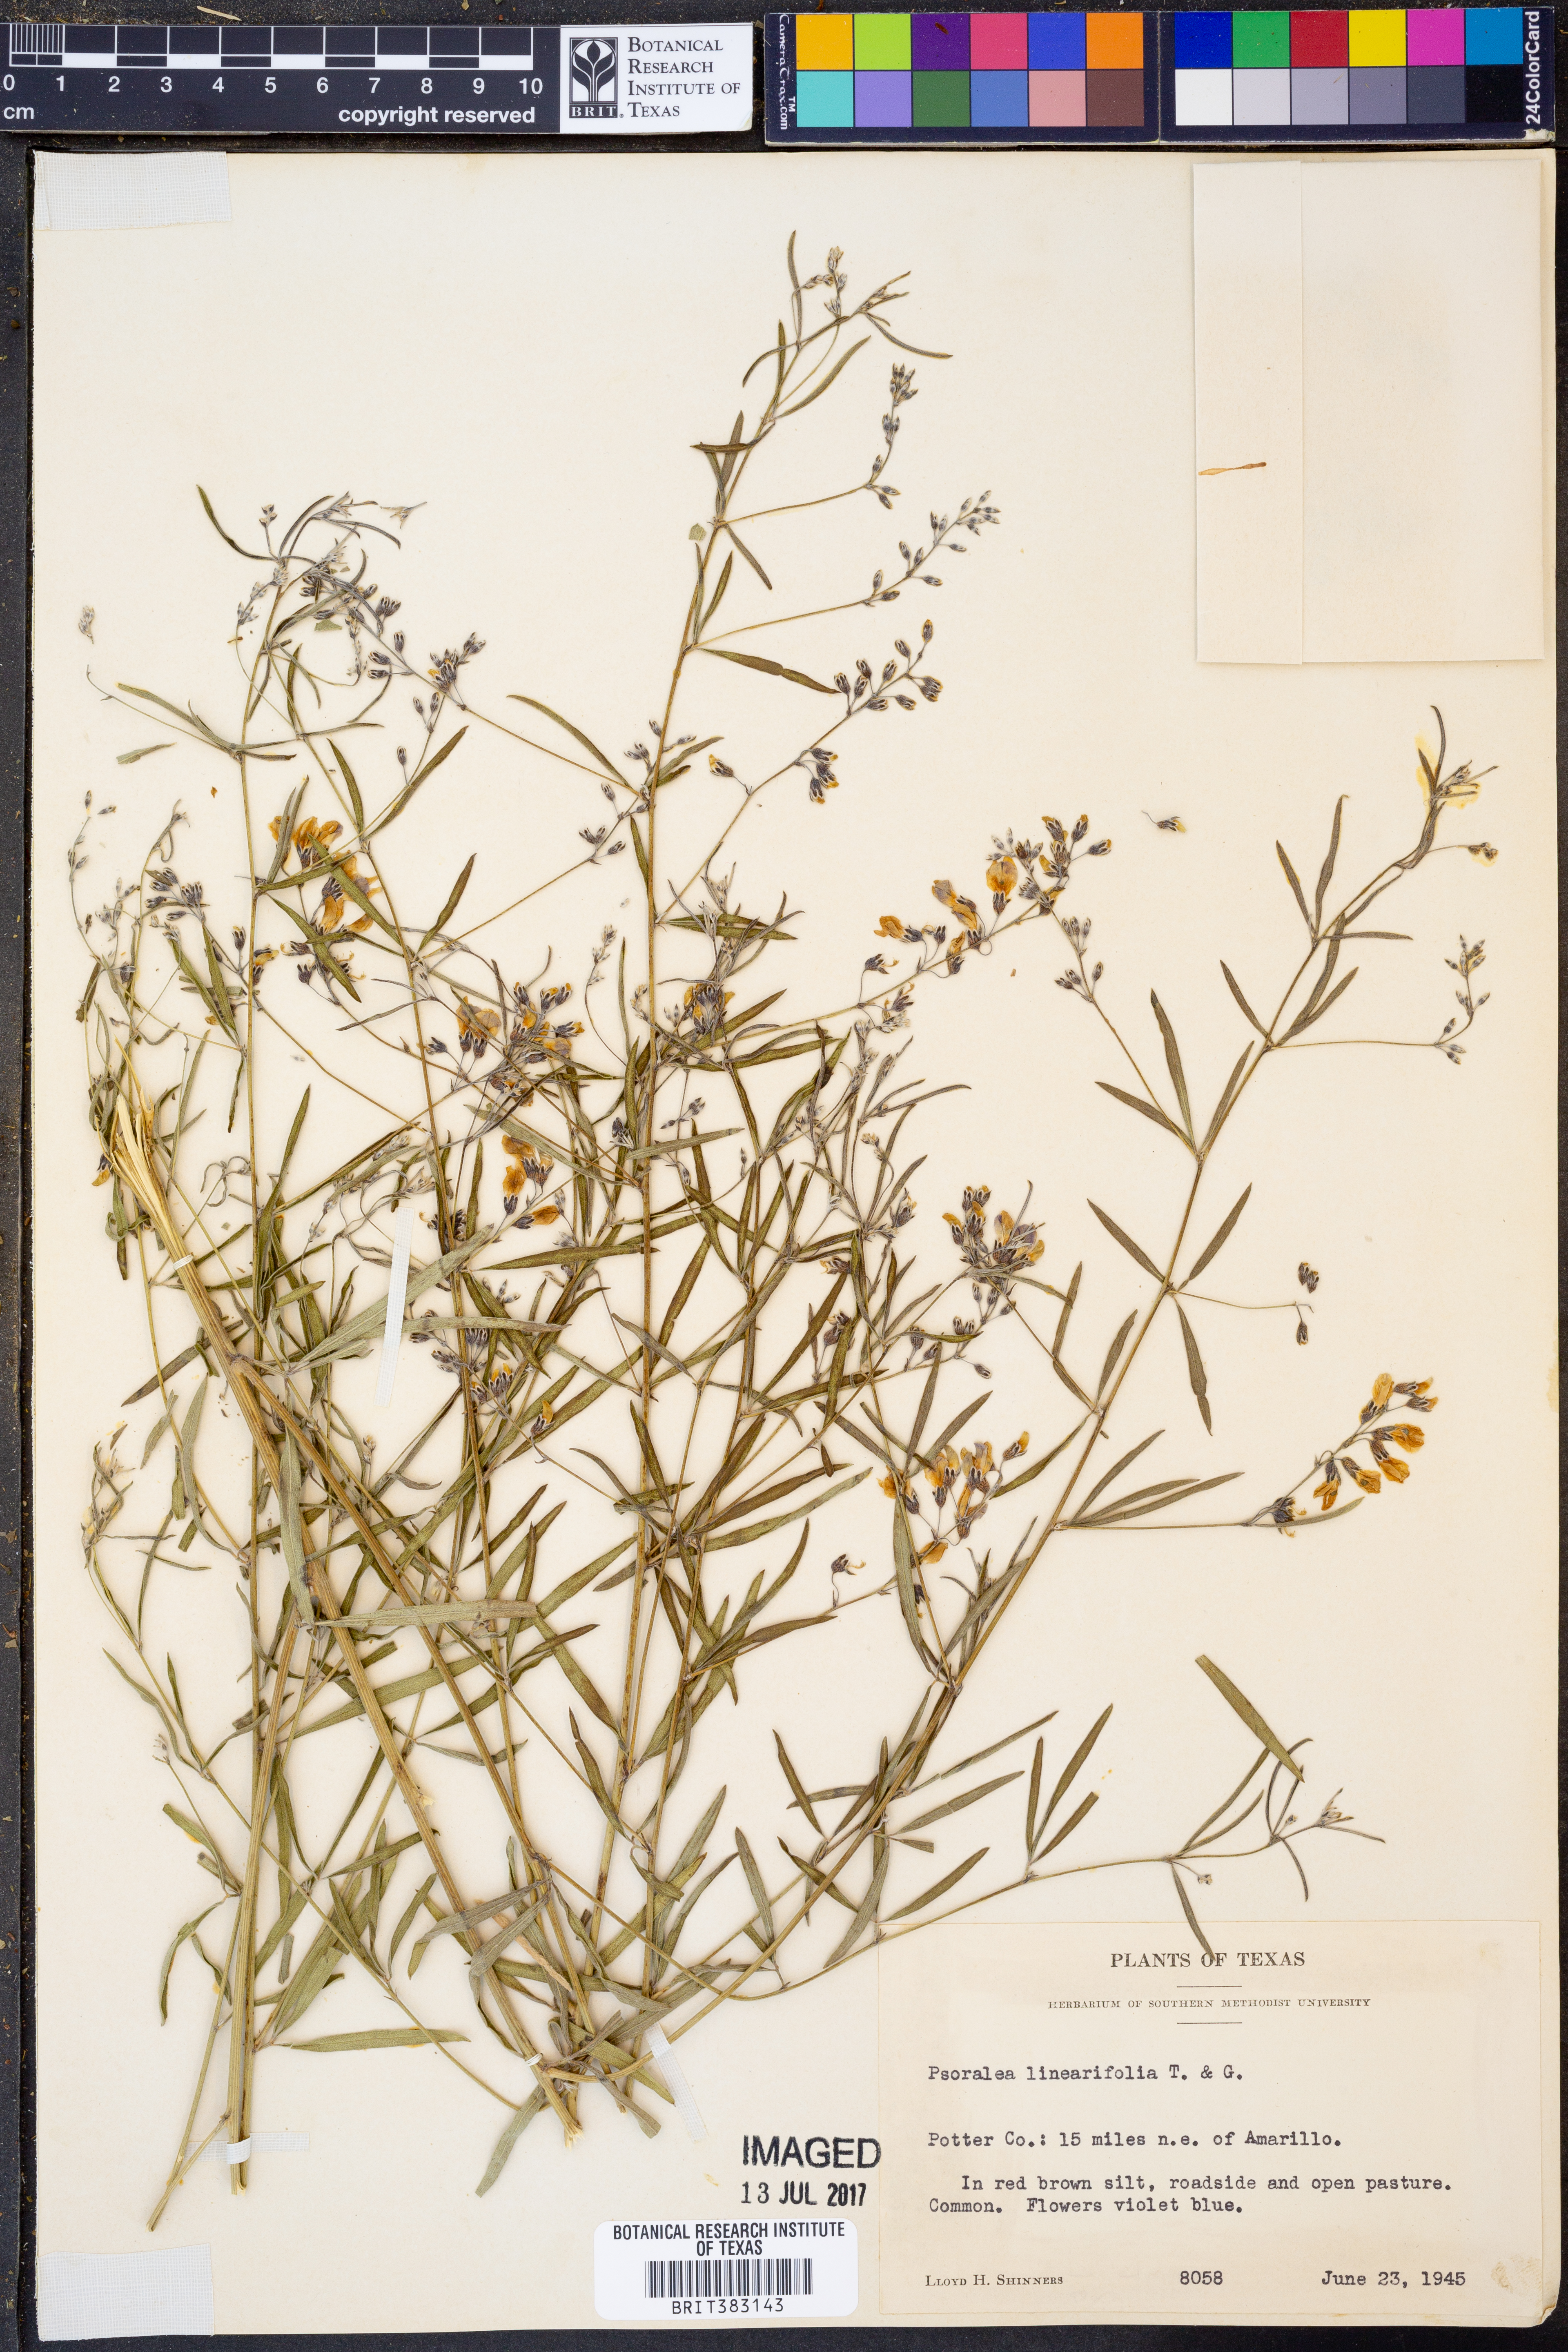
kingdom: Plantae
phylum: Tracheophyta
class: Magnoliopsida
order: Fabales
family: Fabaceae
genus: Pediomelum
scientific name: Pediomelum linearifolium
